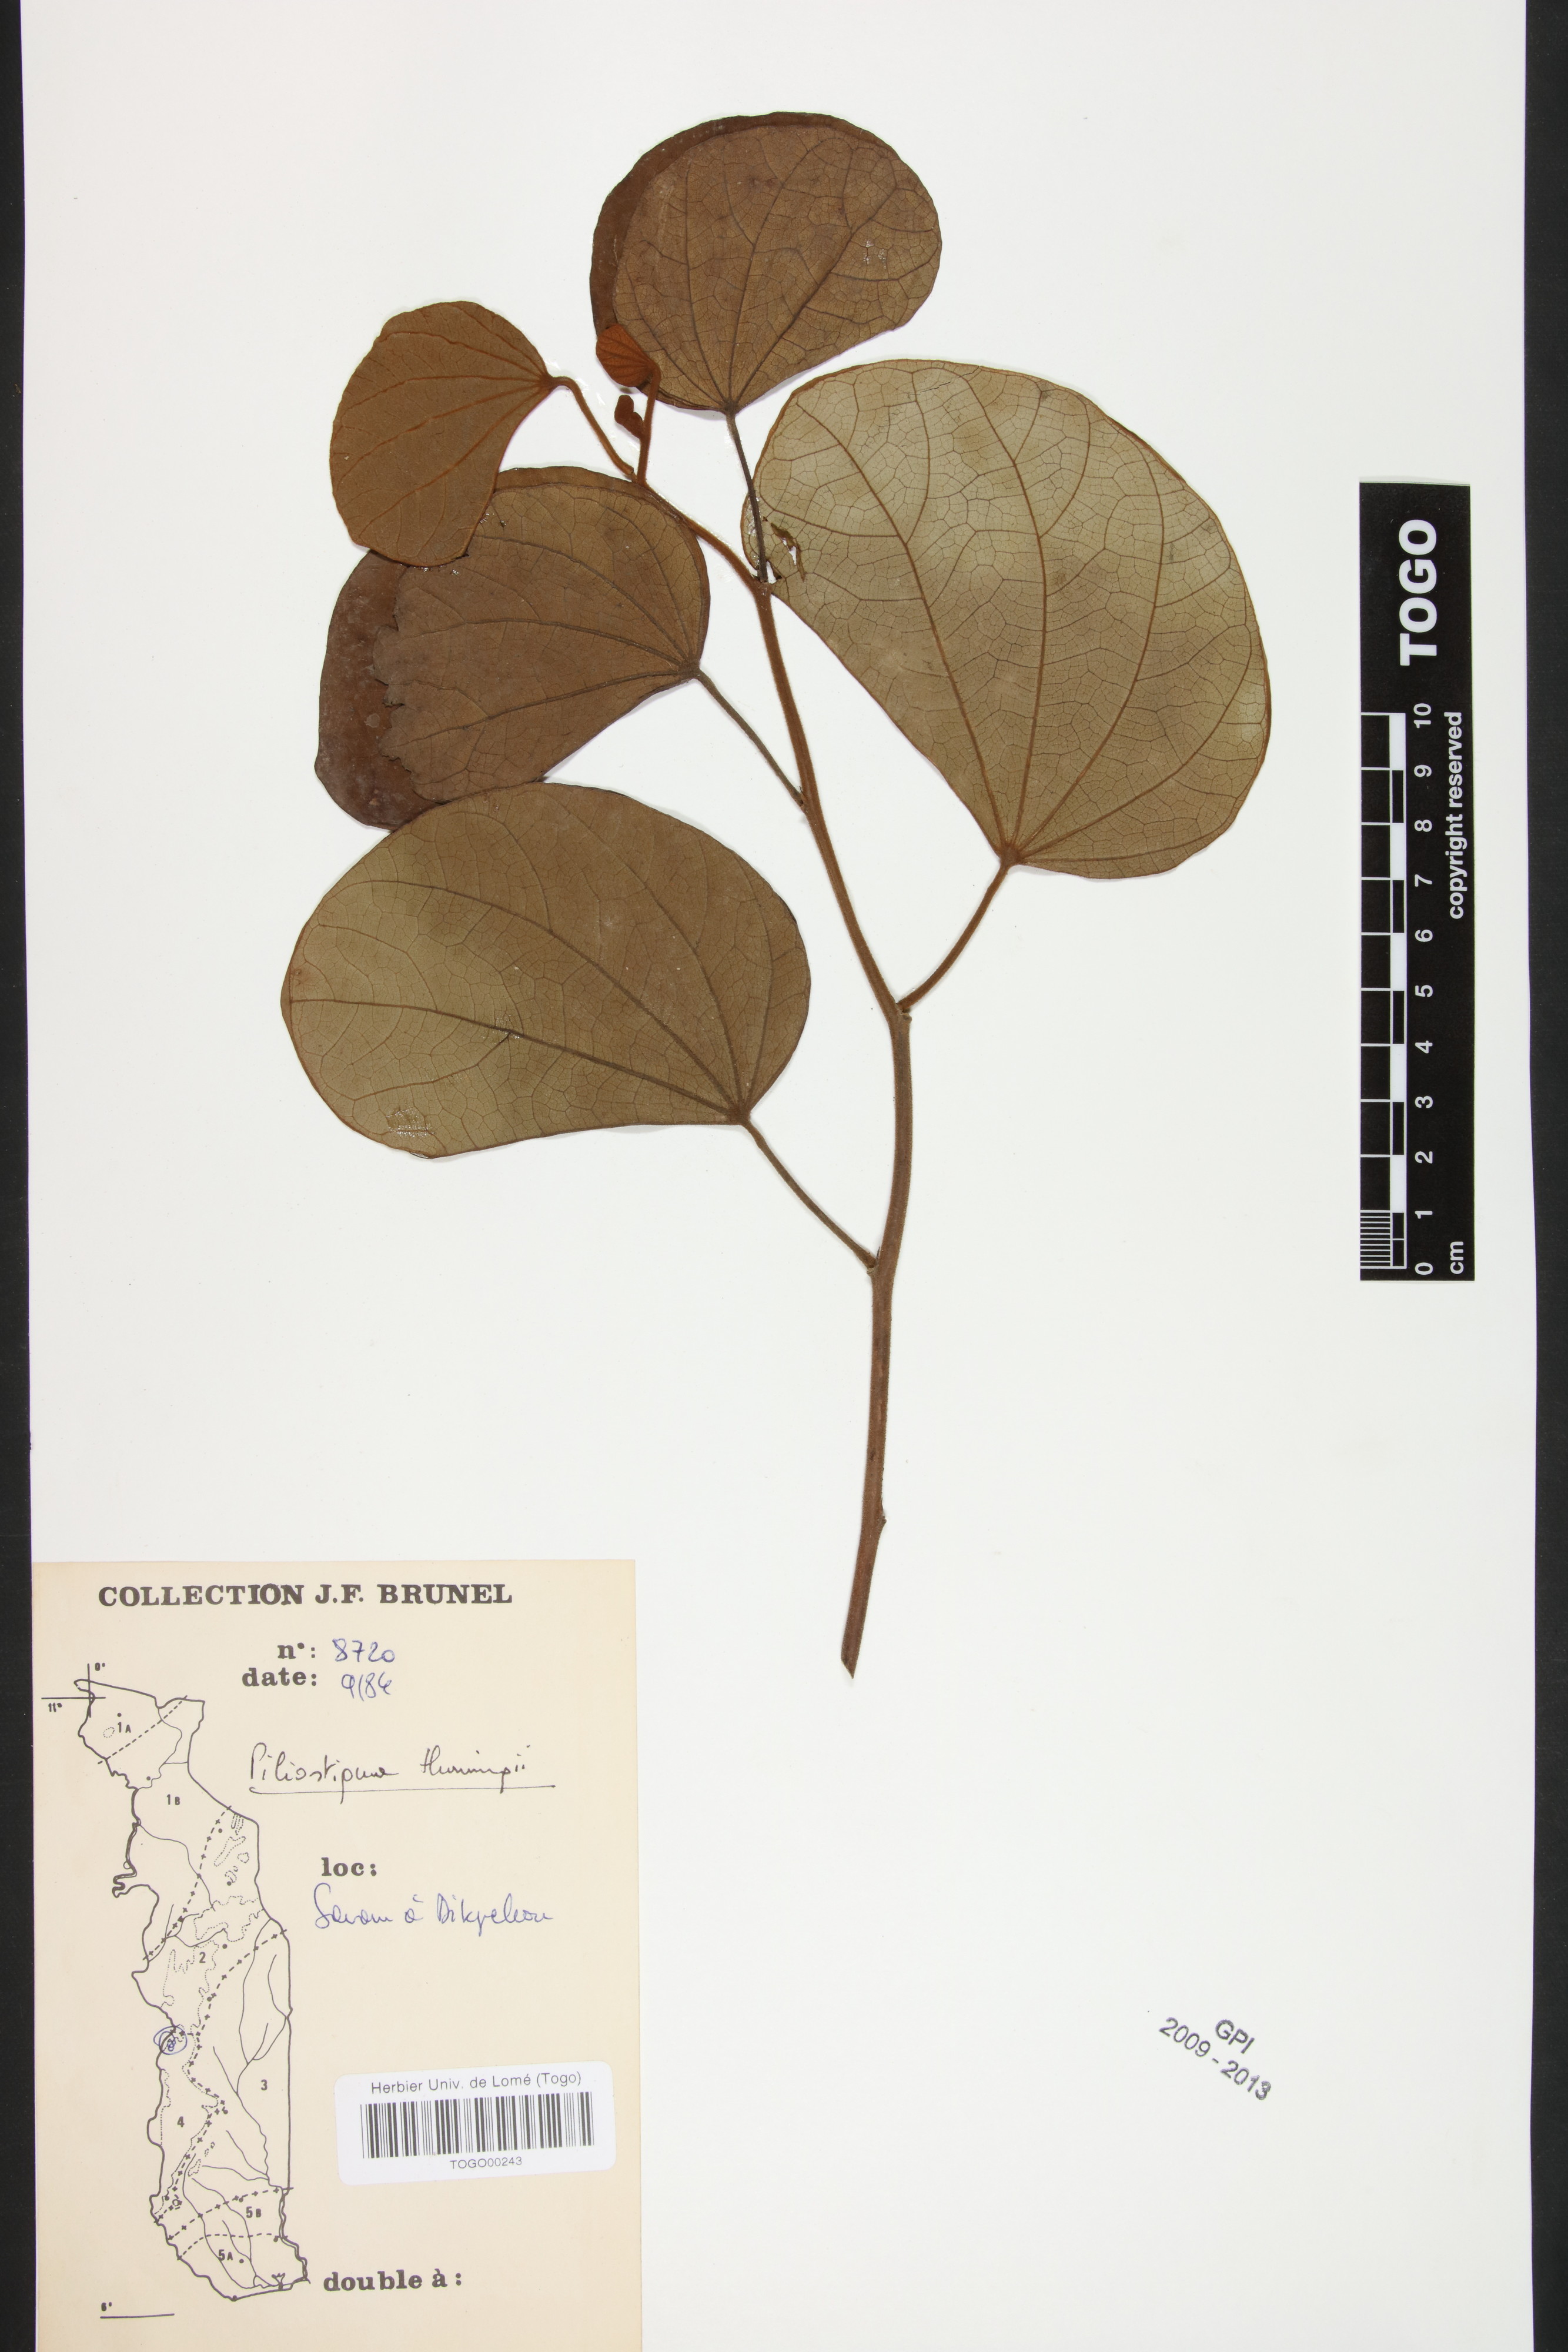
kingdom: Plantae
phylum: Tracheophyta
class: Magnoliopsida
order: Fabales
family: Fabaceae
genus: Piliostigma
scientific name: Piliostigma thonningii
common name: Kao
